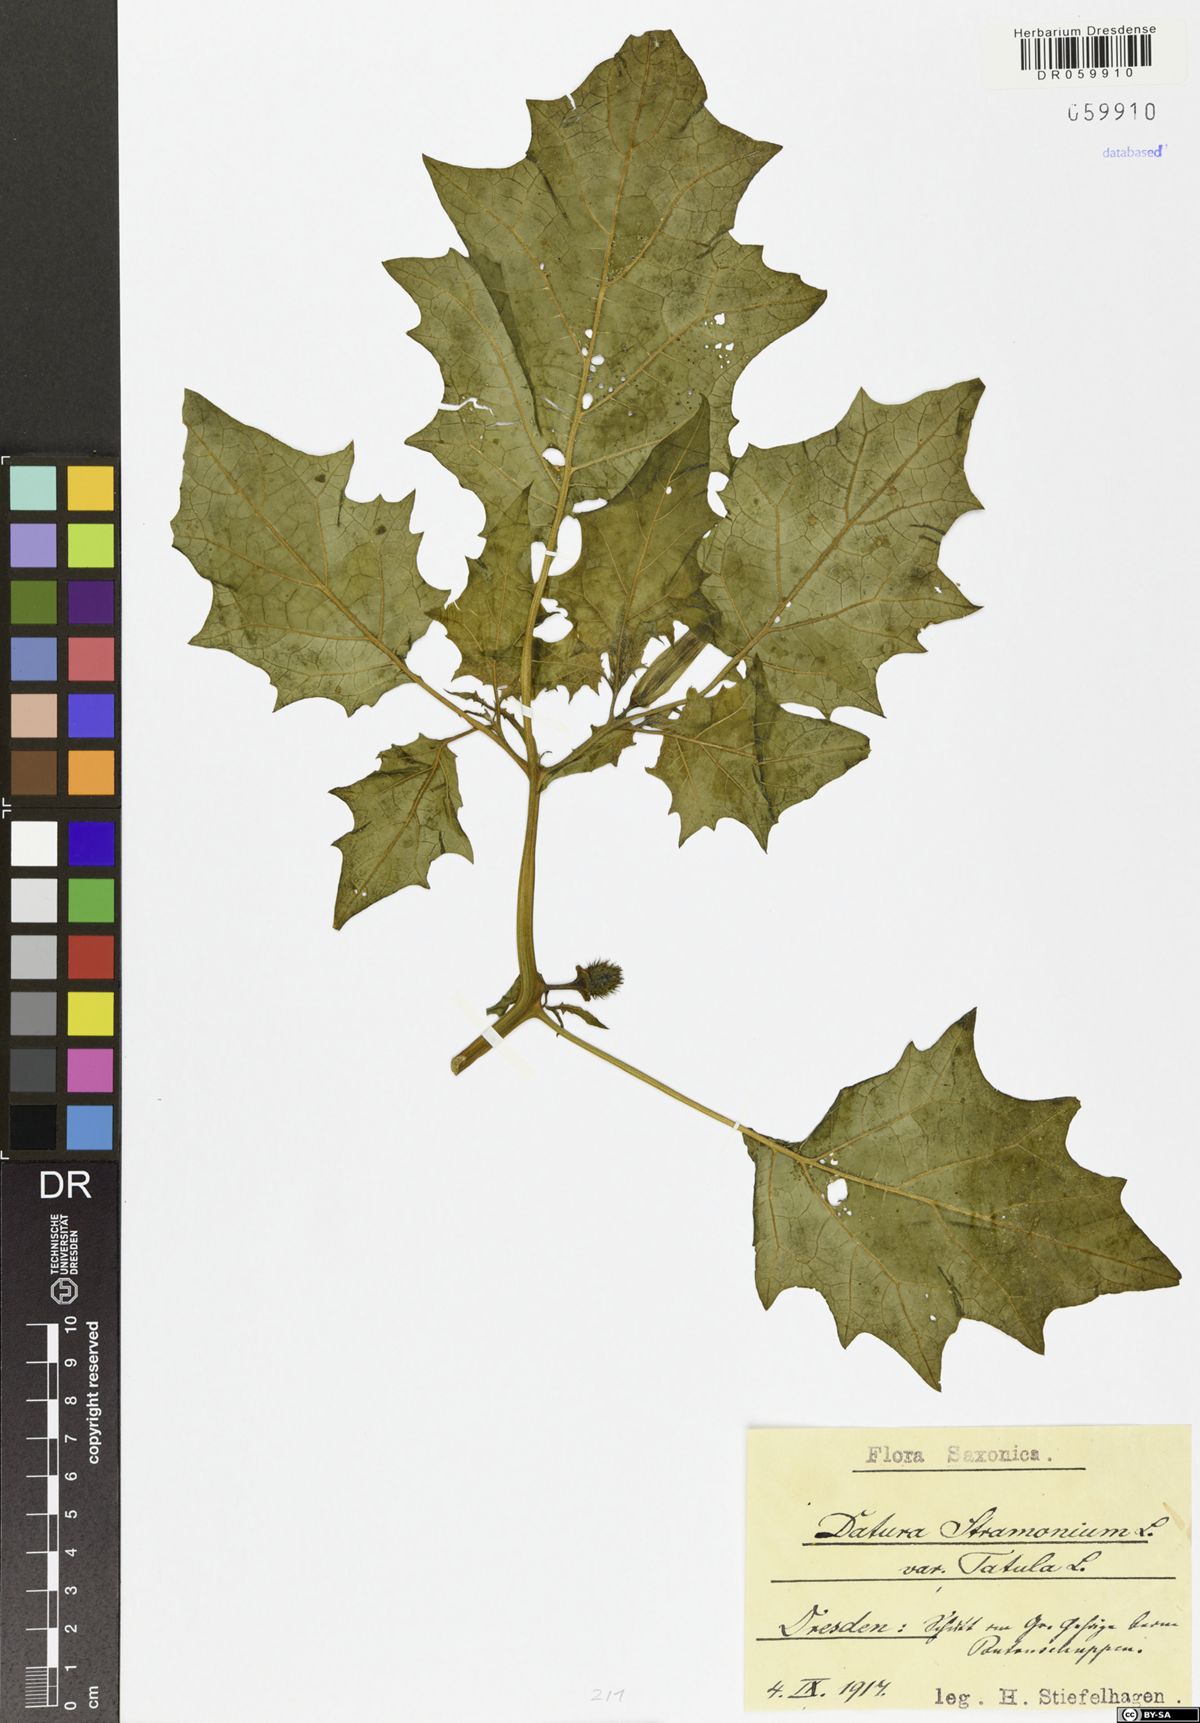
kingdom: Plantae
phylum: Tracheophyta
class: Magnoliopsida
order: Solanales
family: Solanaceae
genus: Datura
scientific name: Datura stramonium
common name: Thorn-apple
